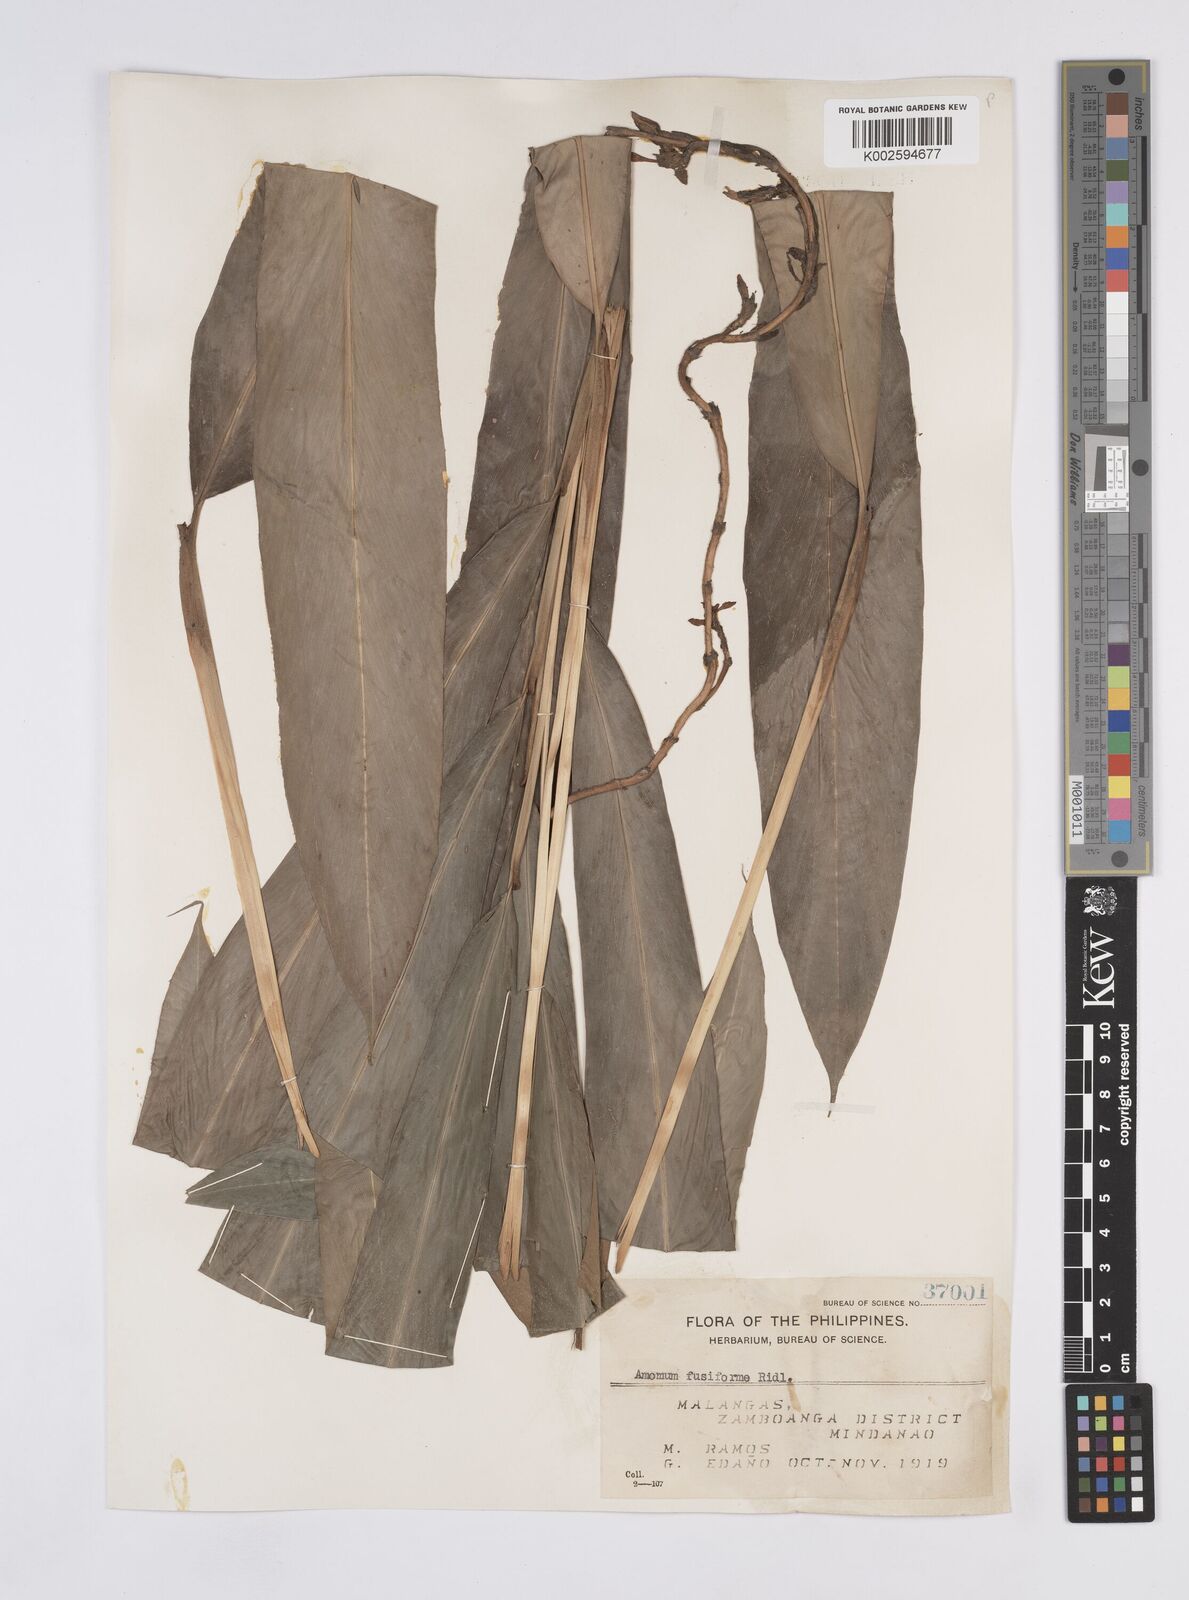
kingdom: Plantae
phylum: Tracheophyta
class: Liliopsida
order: Zingiberales
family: Zingiberaceae
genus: Geocharis
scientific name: Geocharis fusiformis
